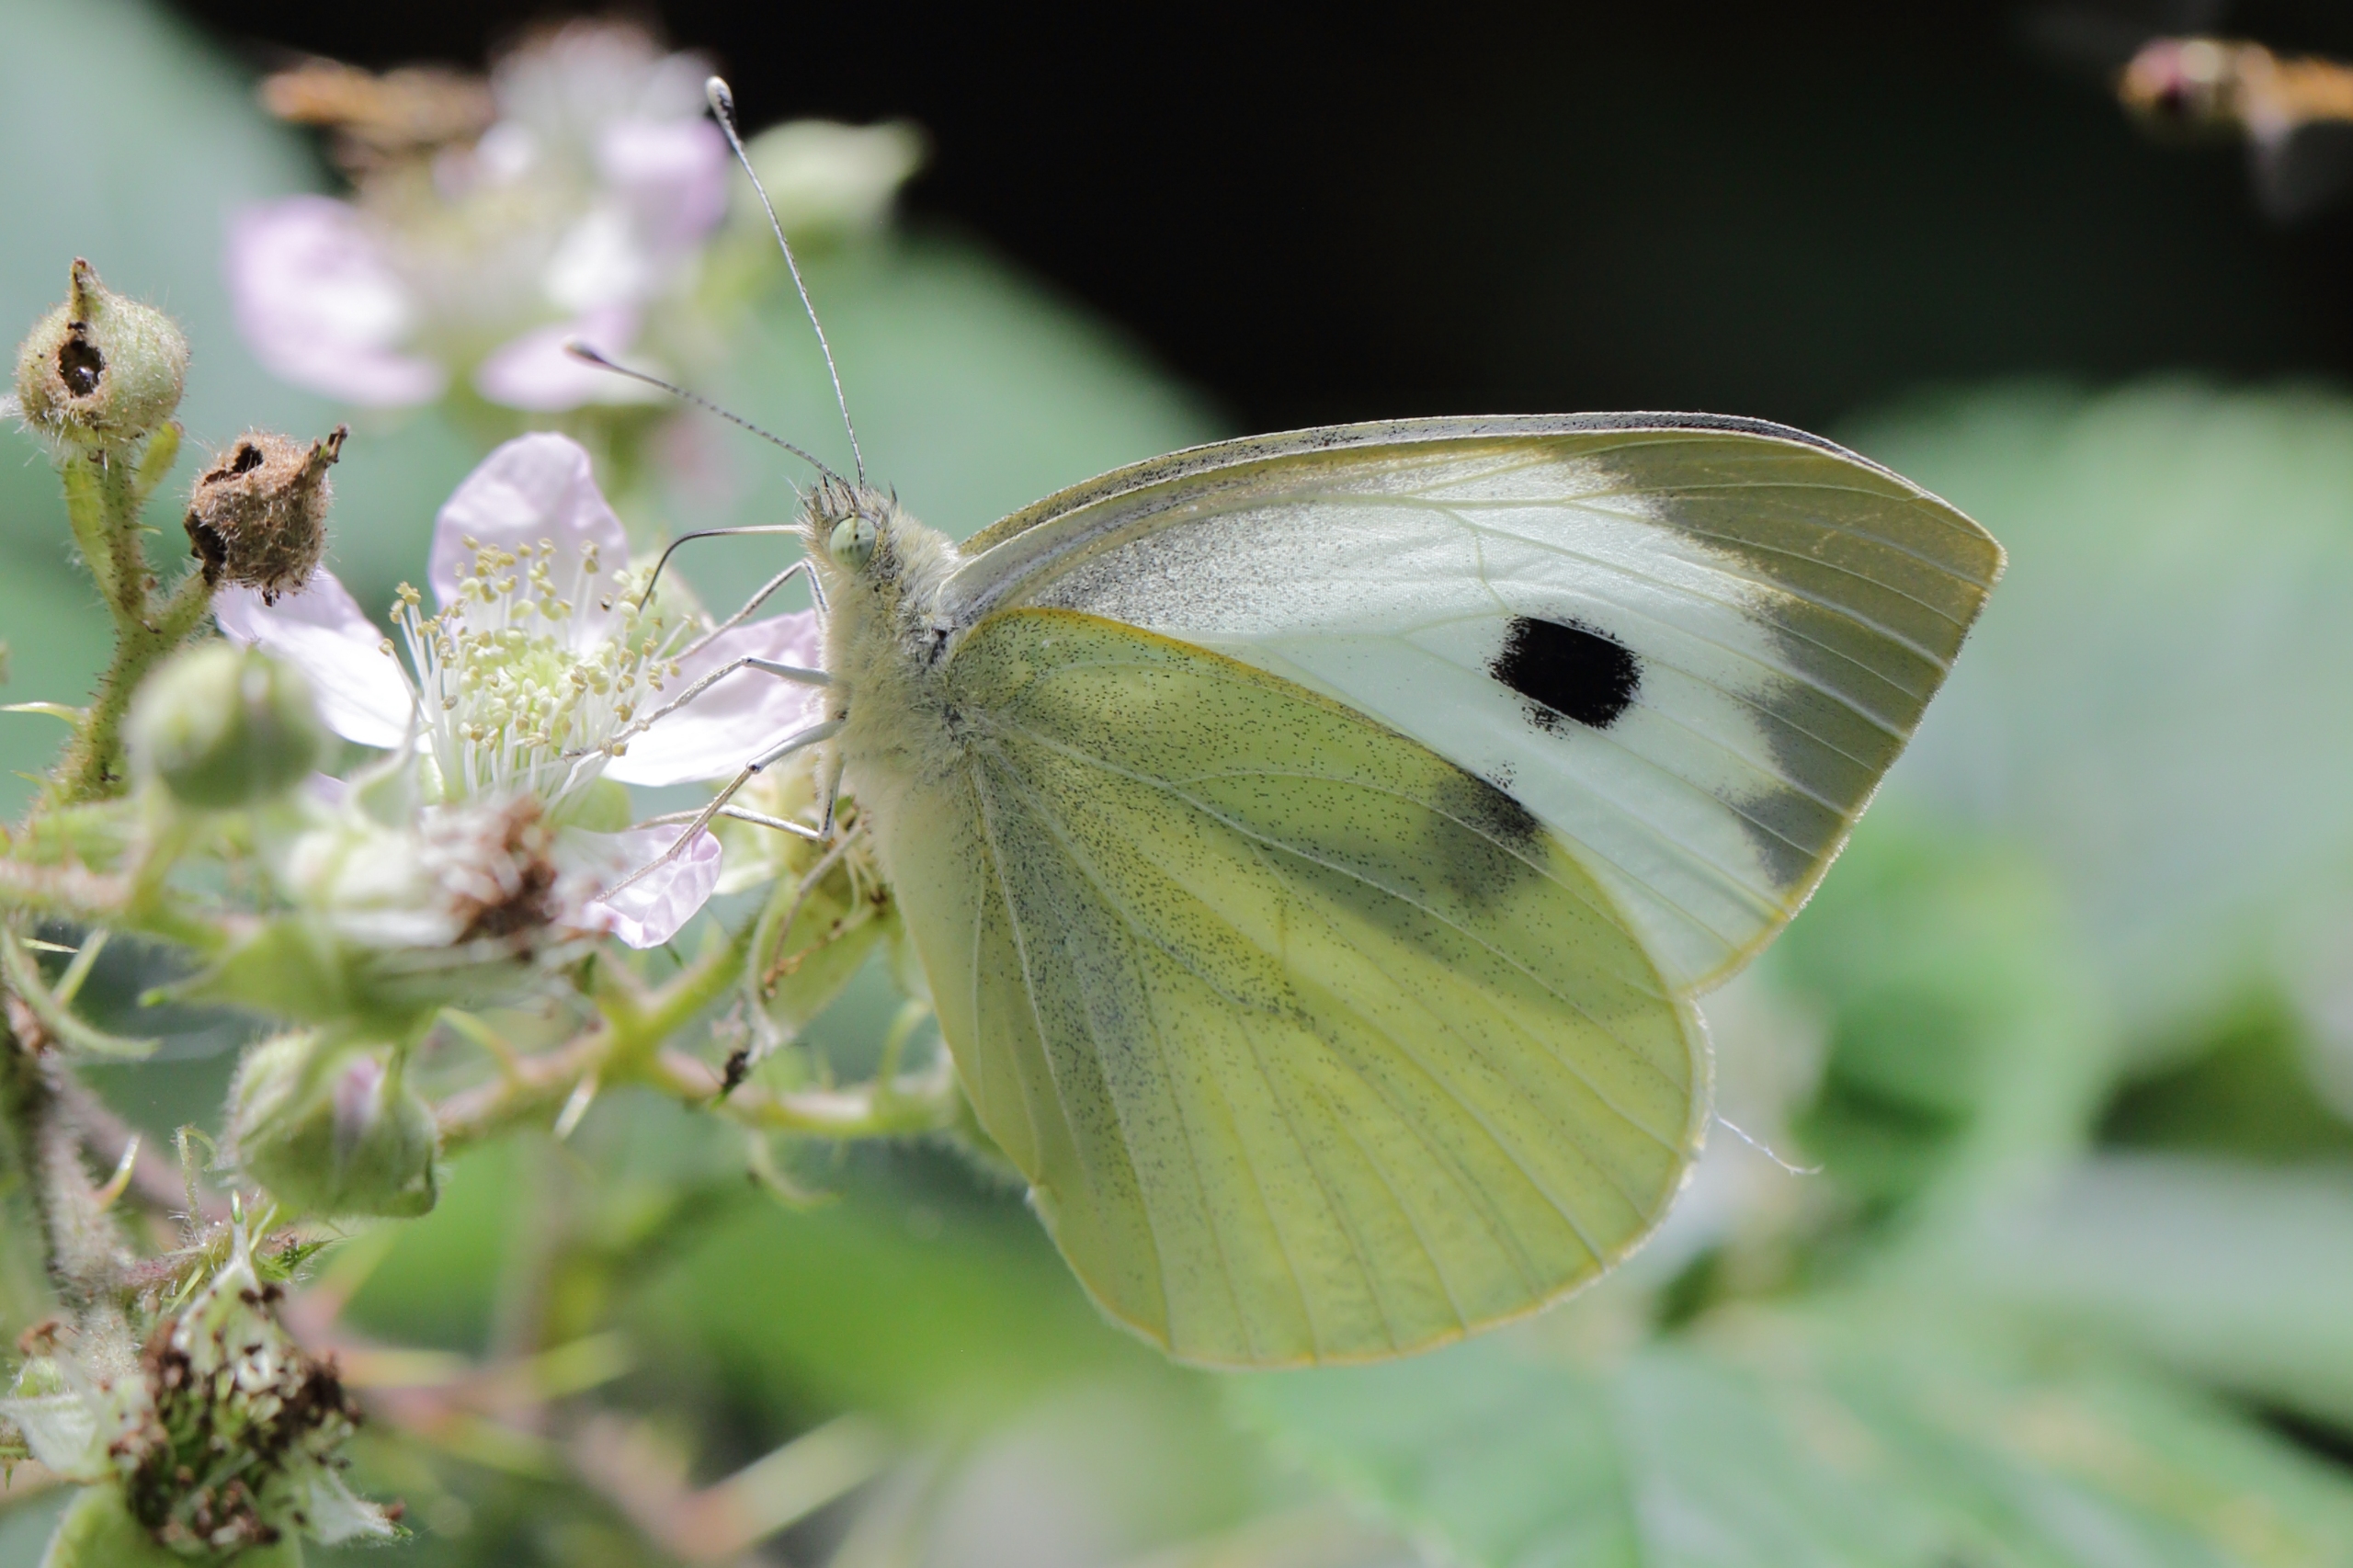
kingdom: Animalia
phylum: Arthropoda
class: Insecta
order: Lepidoptera
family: Pieridae
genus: Pieris
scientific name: Pieris brassicae
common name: Stor kålsommerfugl
